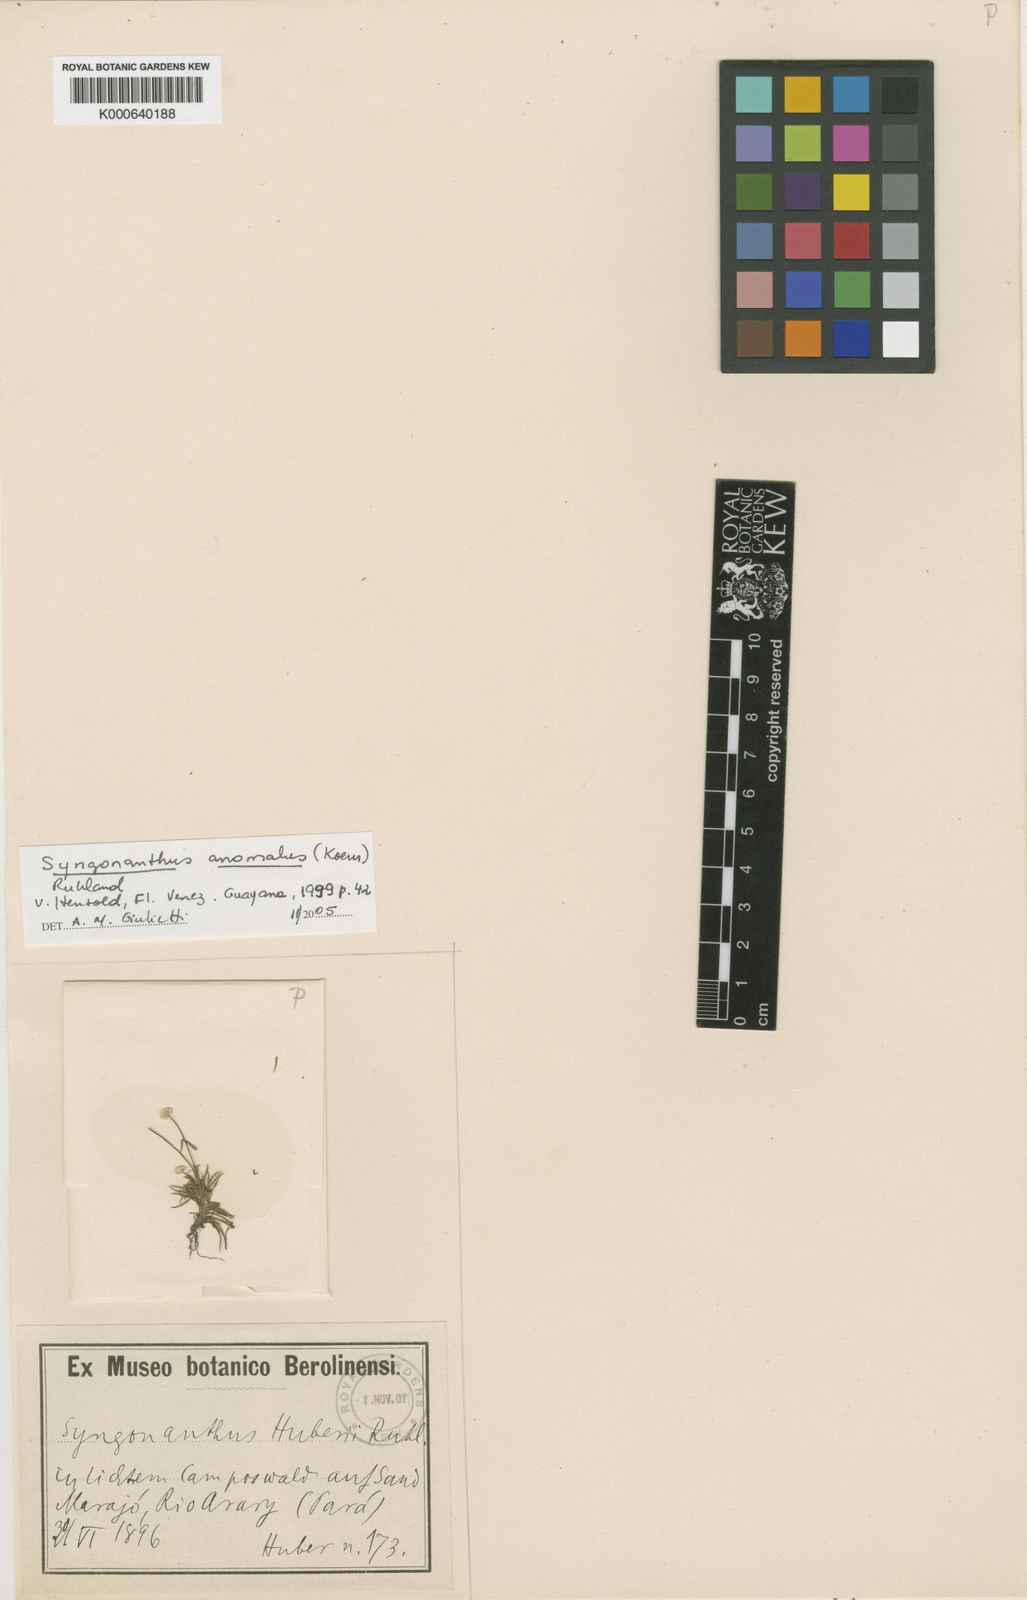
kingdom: Plantae
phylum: Tracheophyta
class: Liliopsida
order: Poales
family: Eriocaulaceae
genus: Syngonanthus
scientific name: Syngonanthus
